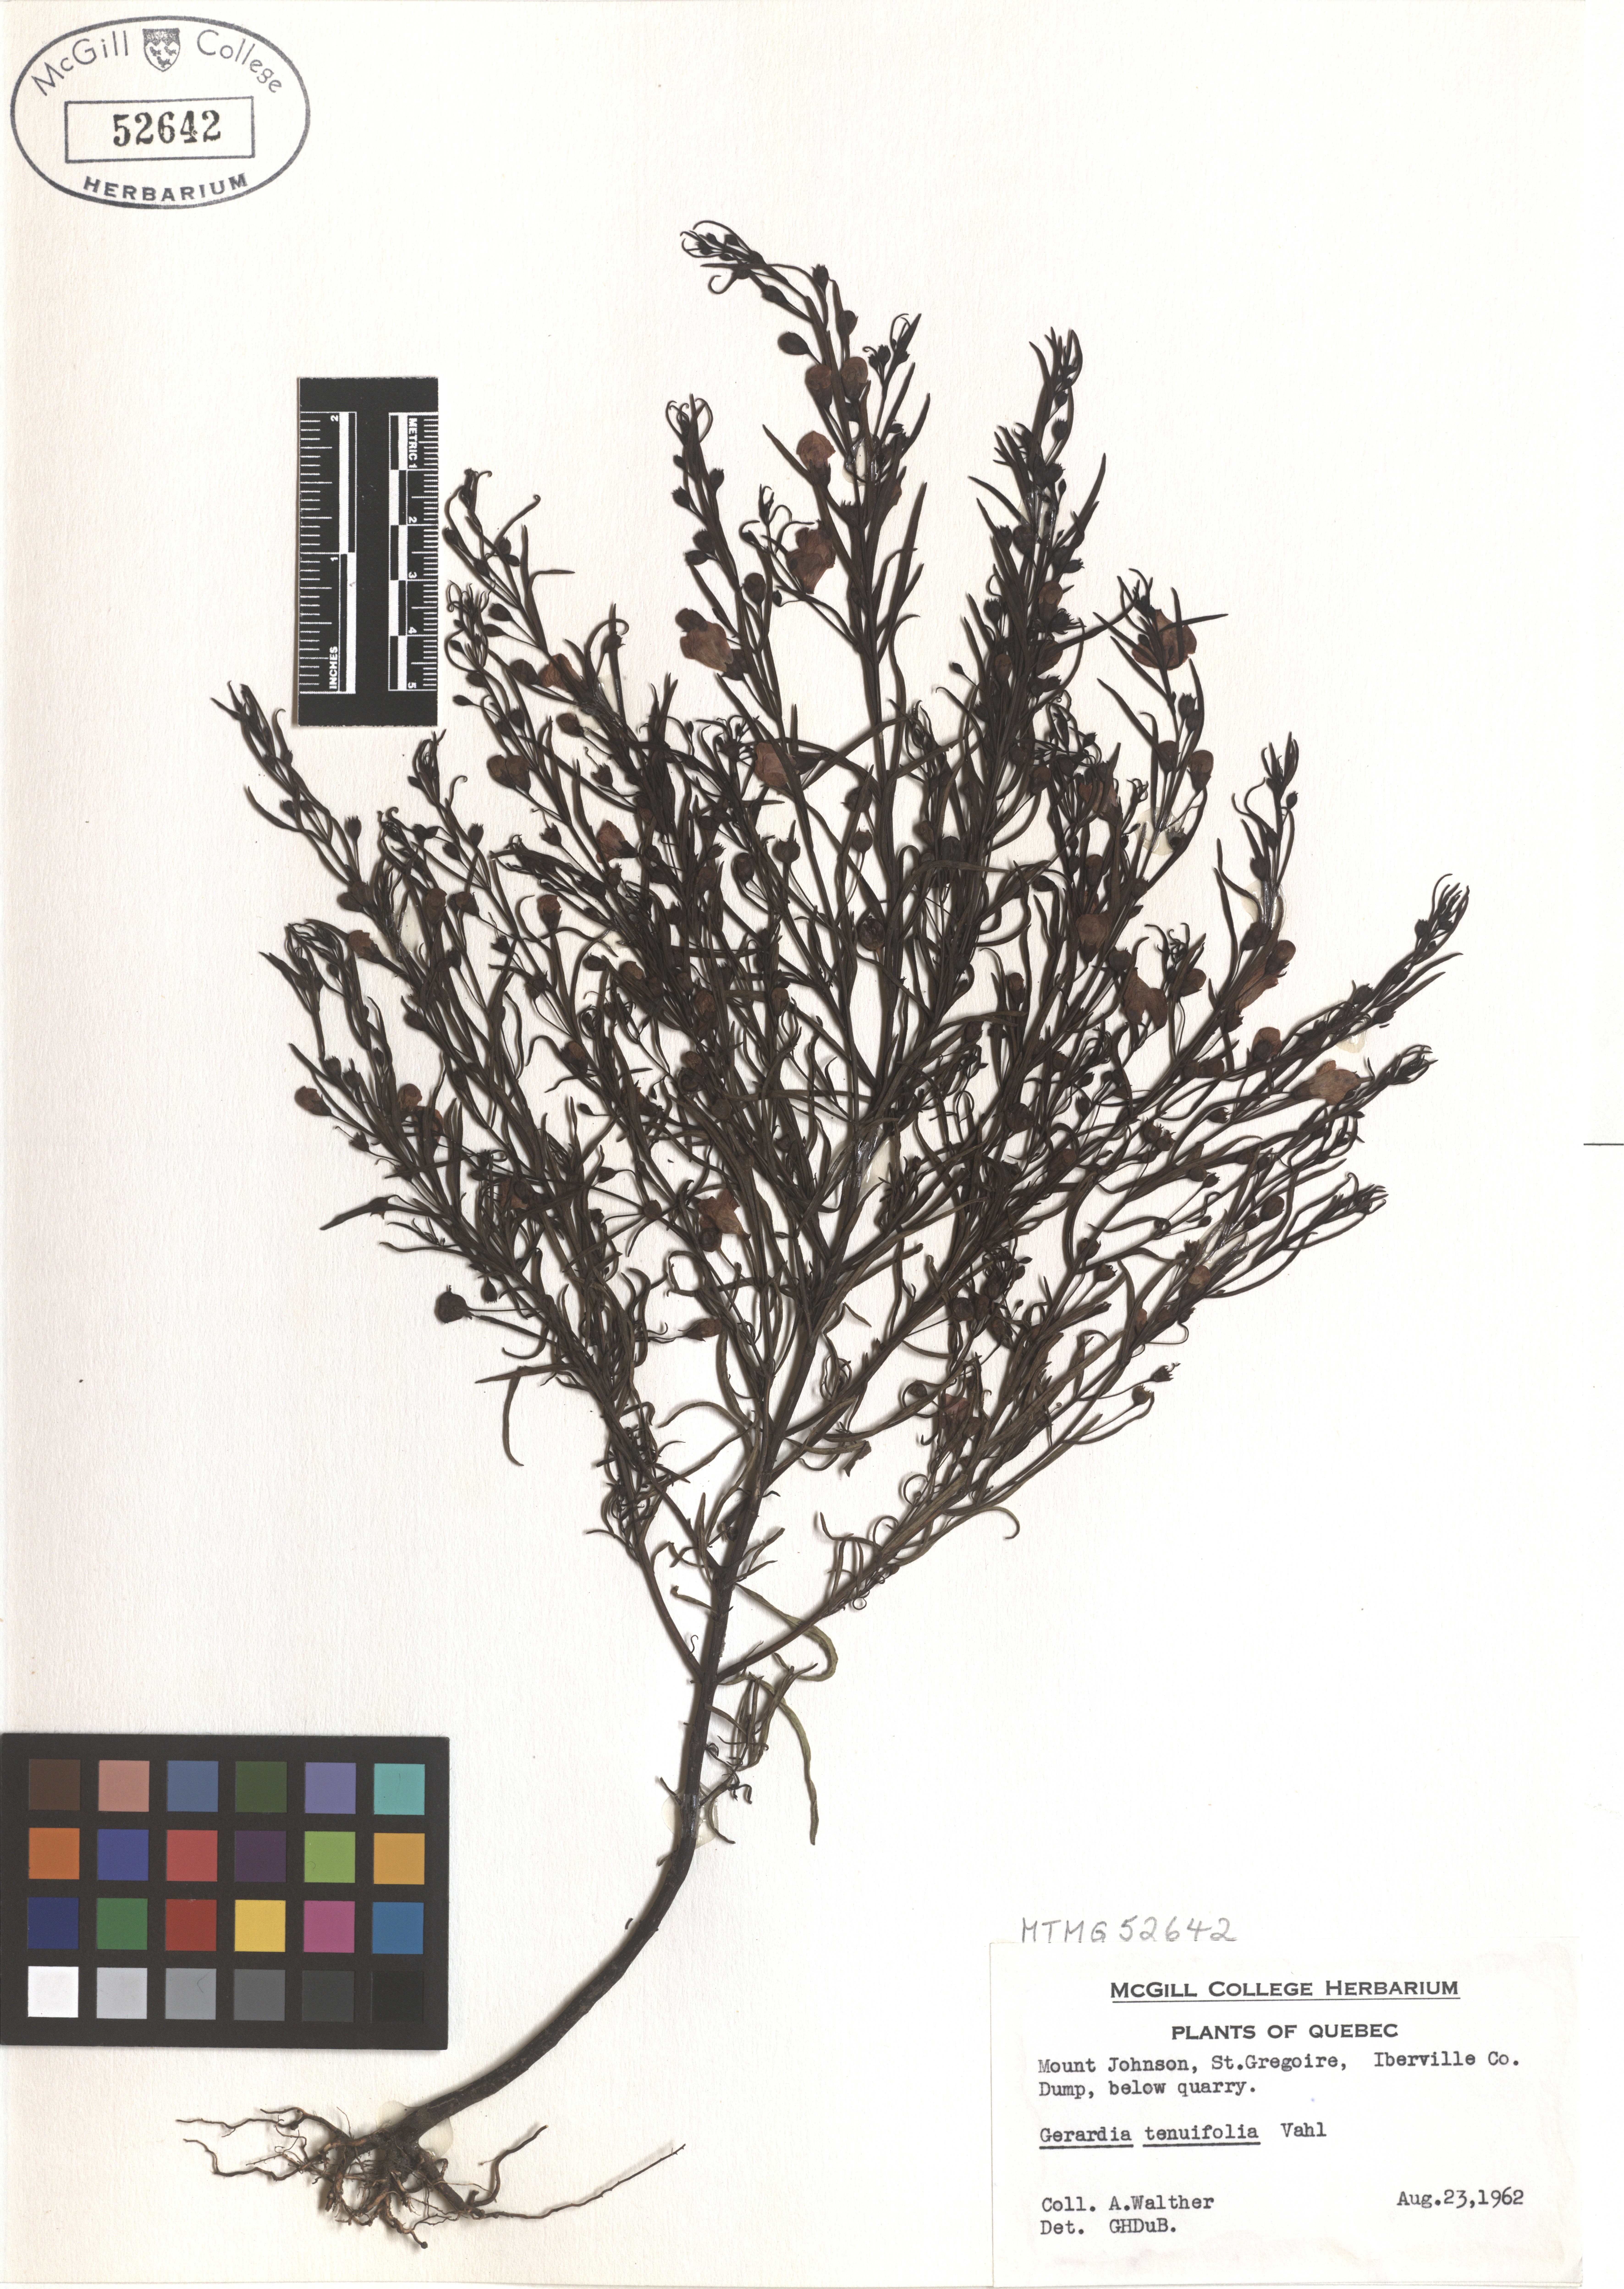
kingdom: Plantae
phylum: Tracheophyta
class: Magnoliopsida
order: Lamiales
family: Orobanchaceae
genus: Agalinis
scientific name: Agalinis tenuifolia
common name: Slender agalinis
